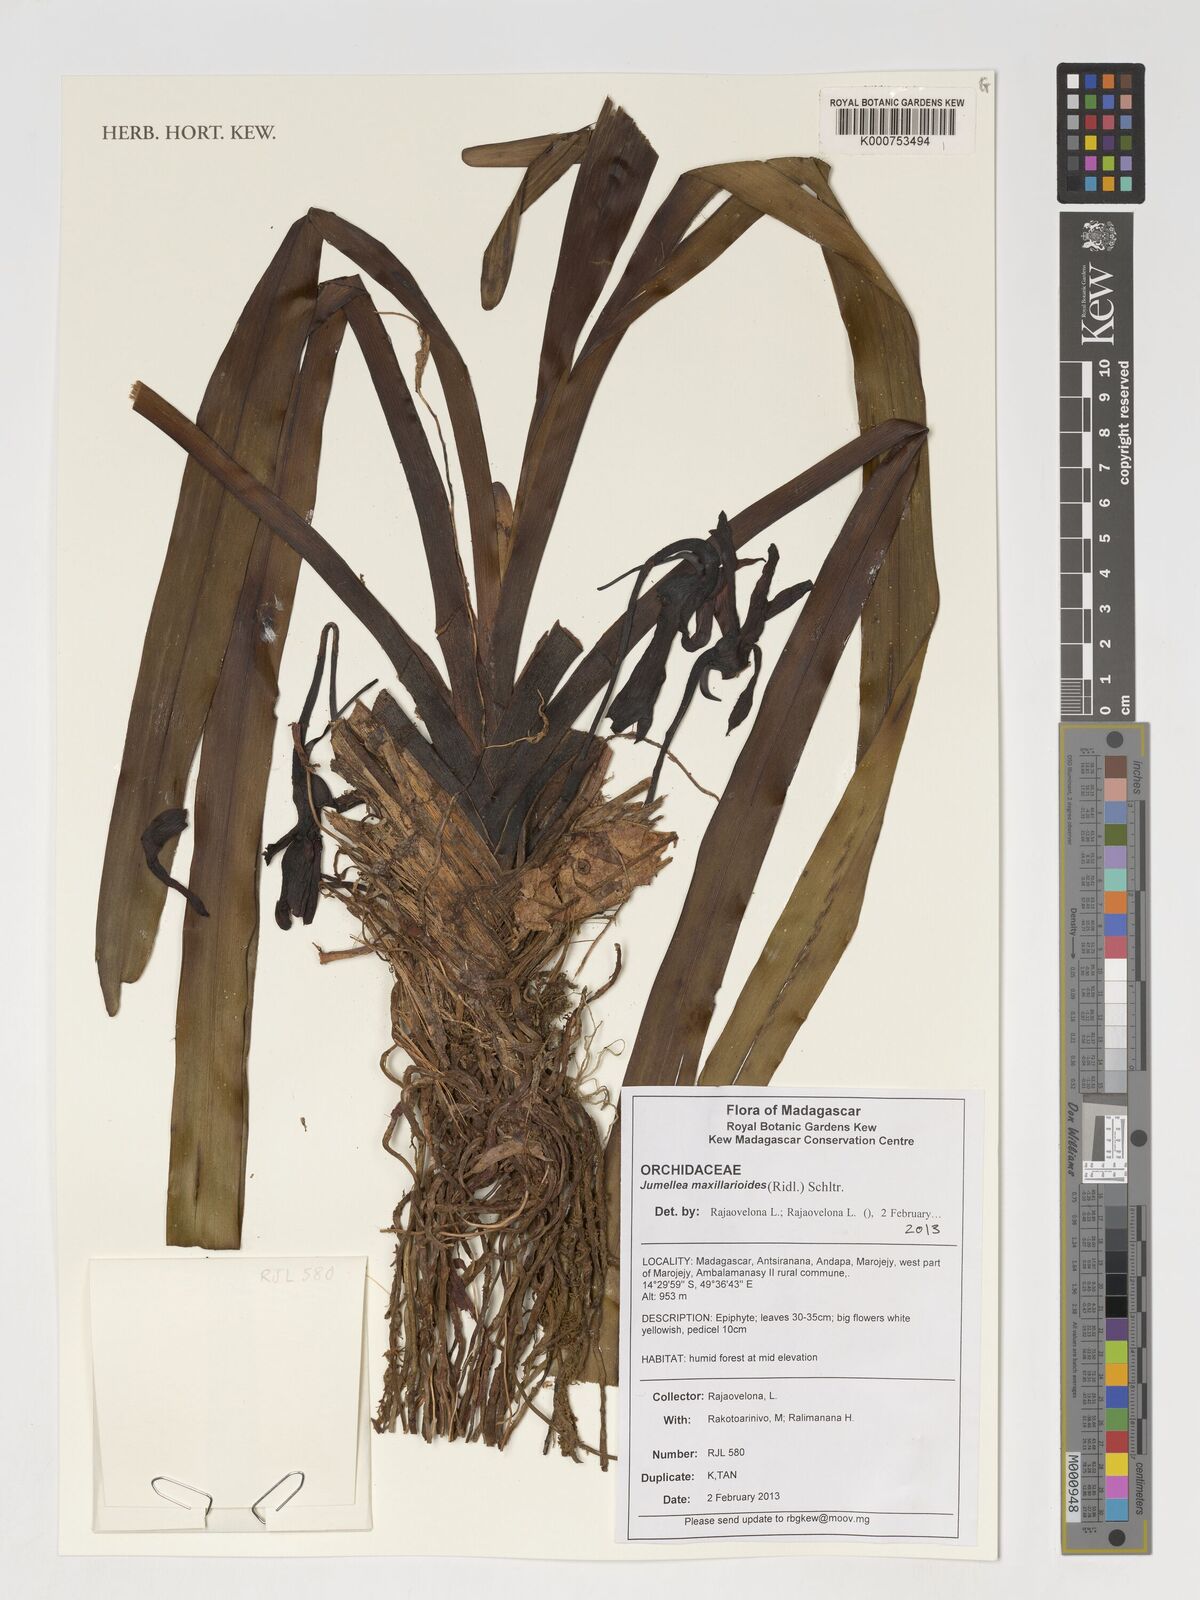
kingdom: Plantae
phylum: Tracheophyta
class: Liliopsida
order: Asparagales
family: Orchidaceae
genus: Jumellea
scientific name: Jumellea maxillarioides
